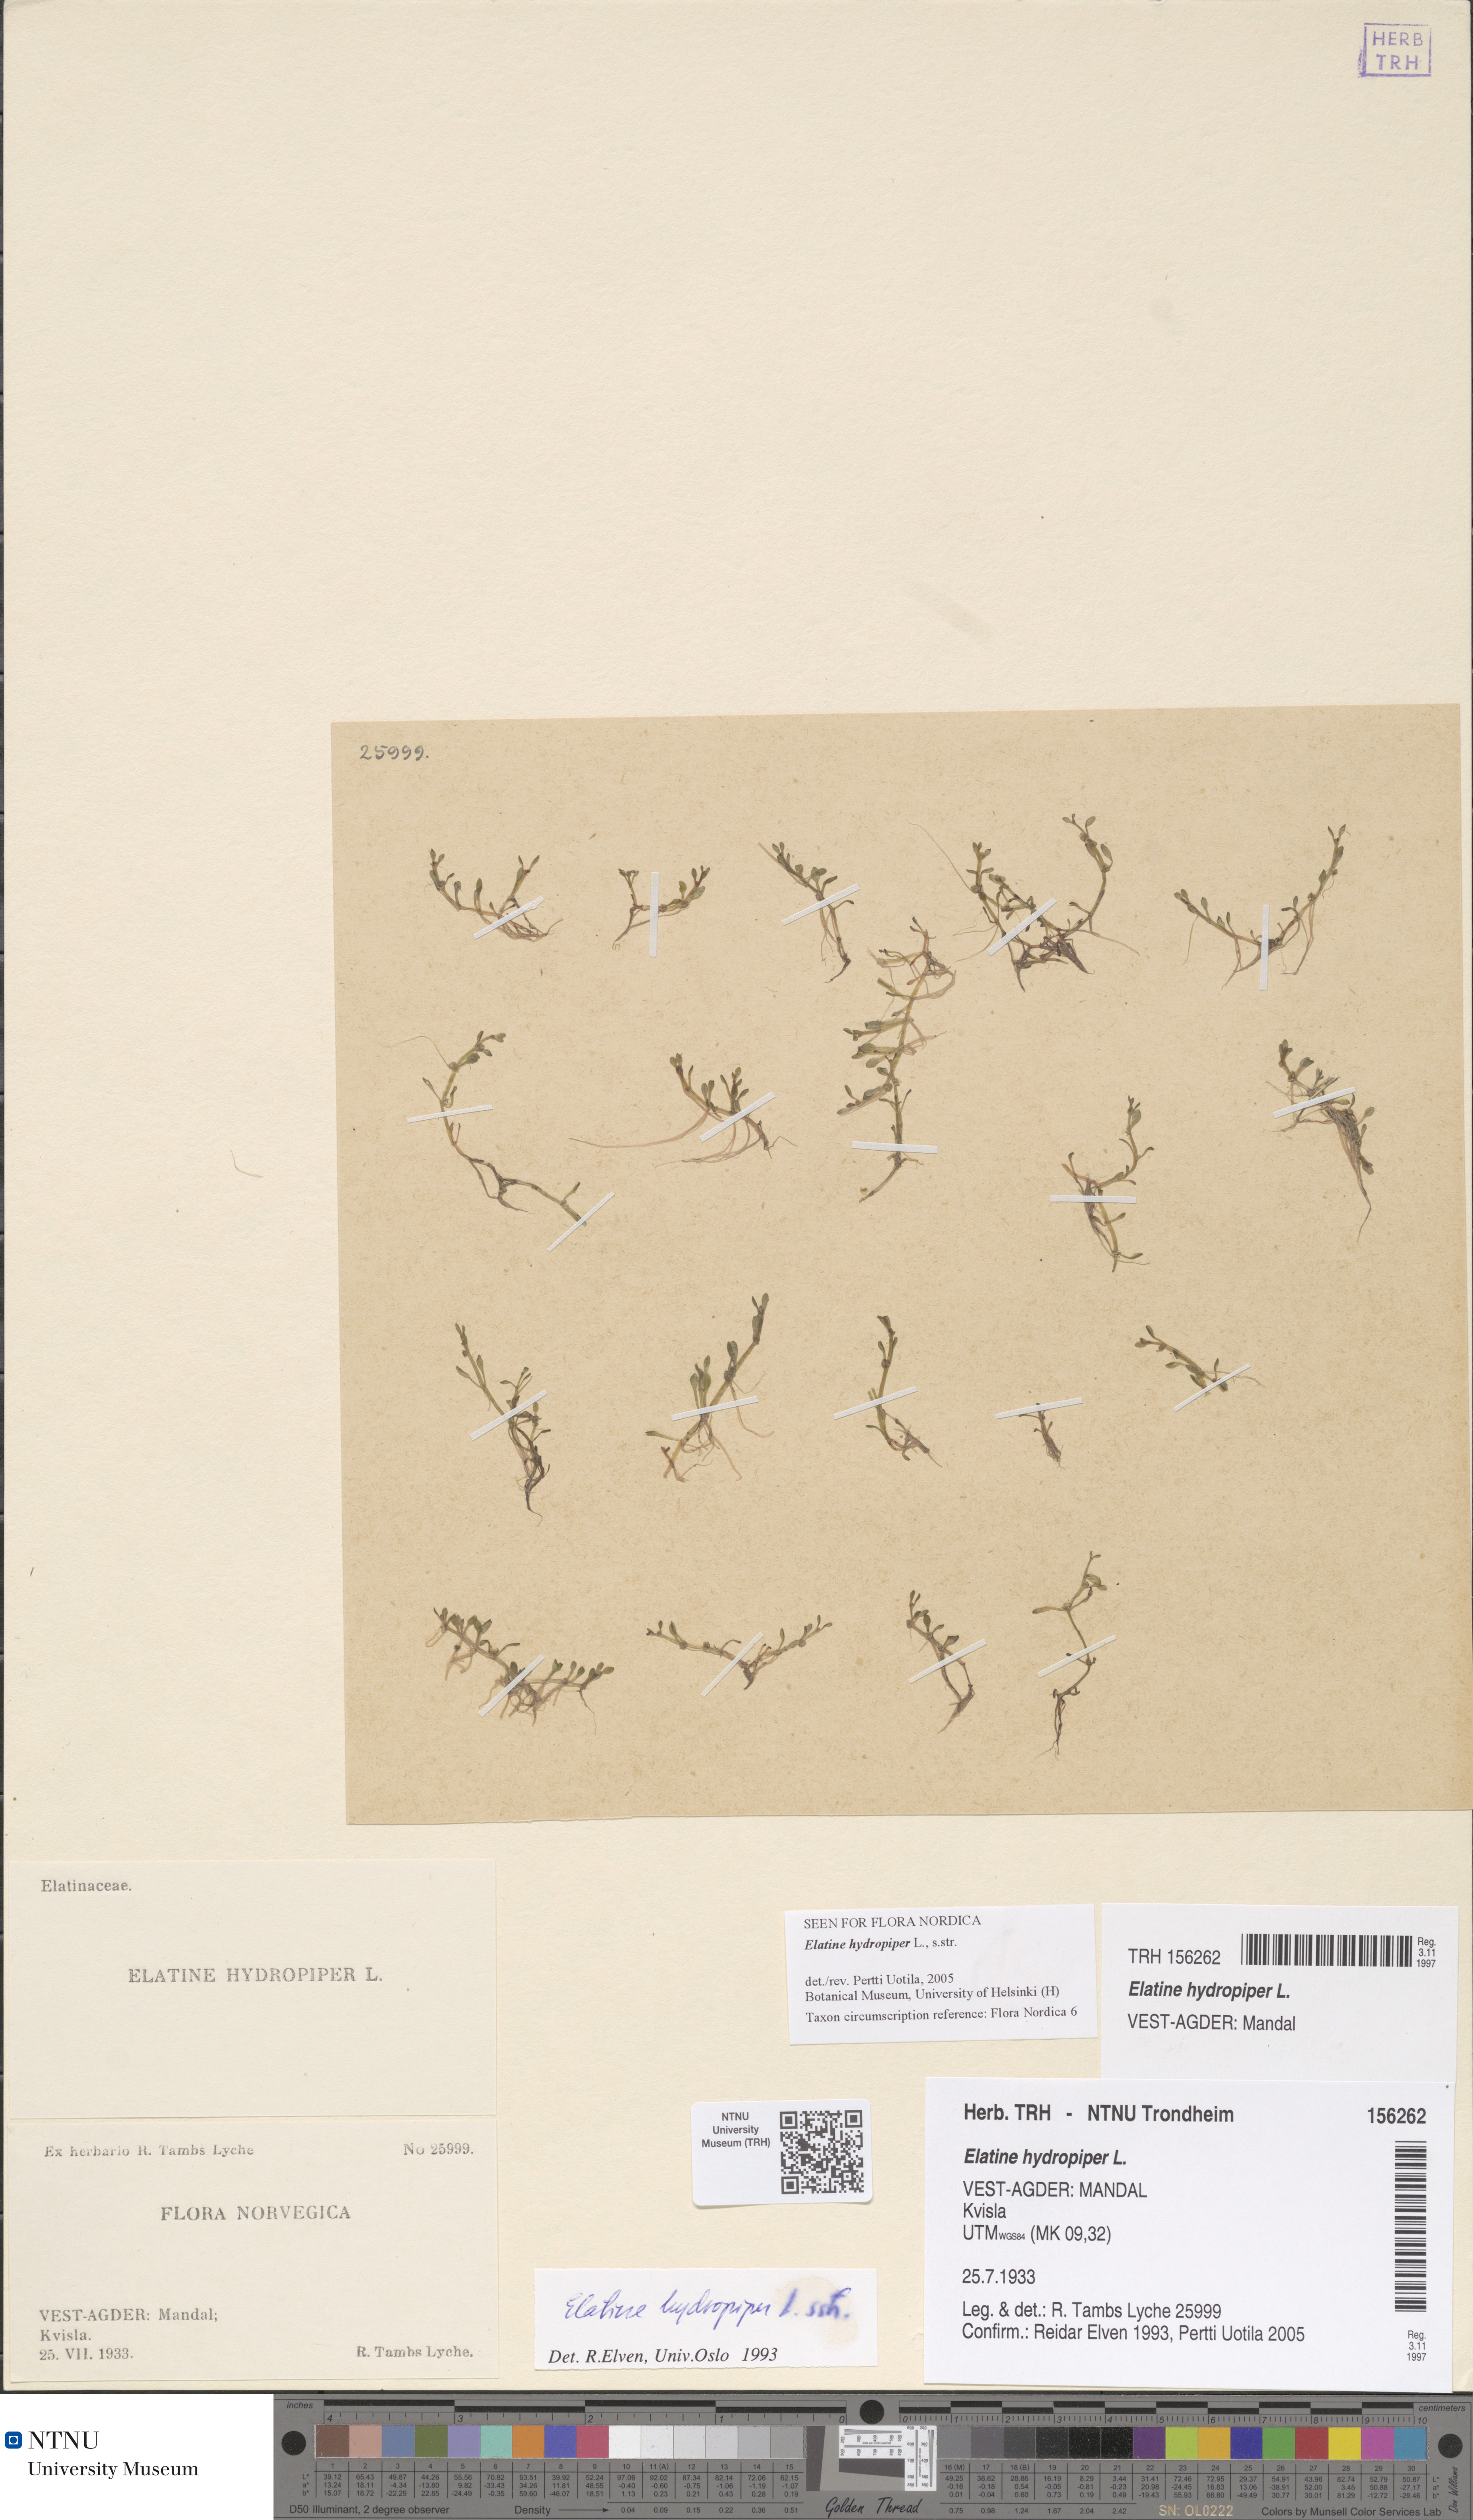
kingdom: Plantae
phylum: Tracheophyta
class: Magnoliopsida
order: Malpighiales
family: Elatinaceae
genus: Elatine
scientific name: Elatine hydropiper
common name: Eight-stamened waterwort
